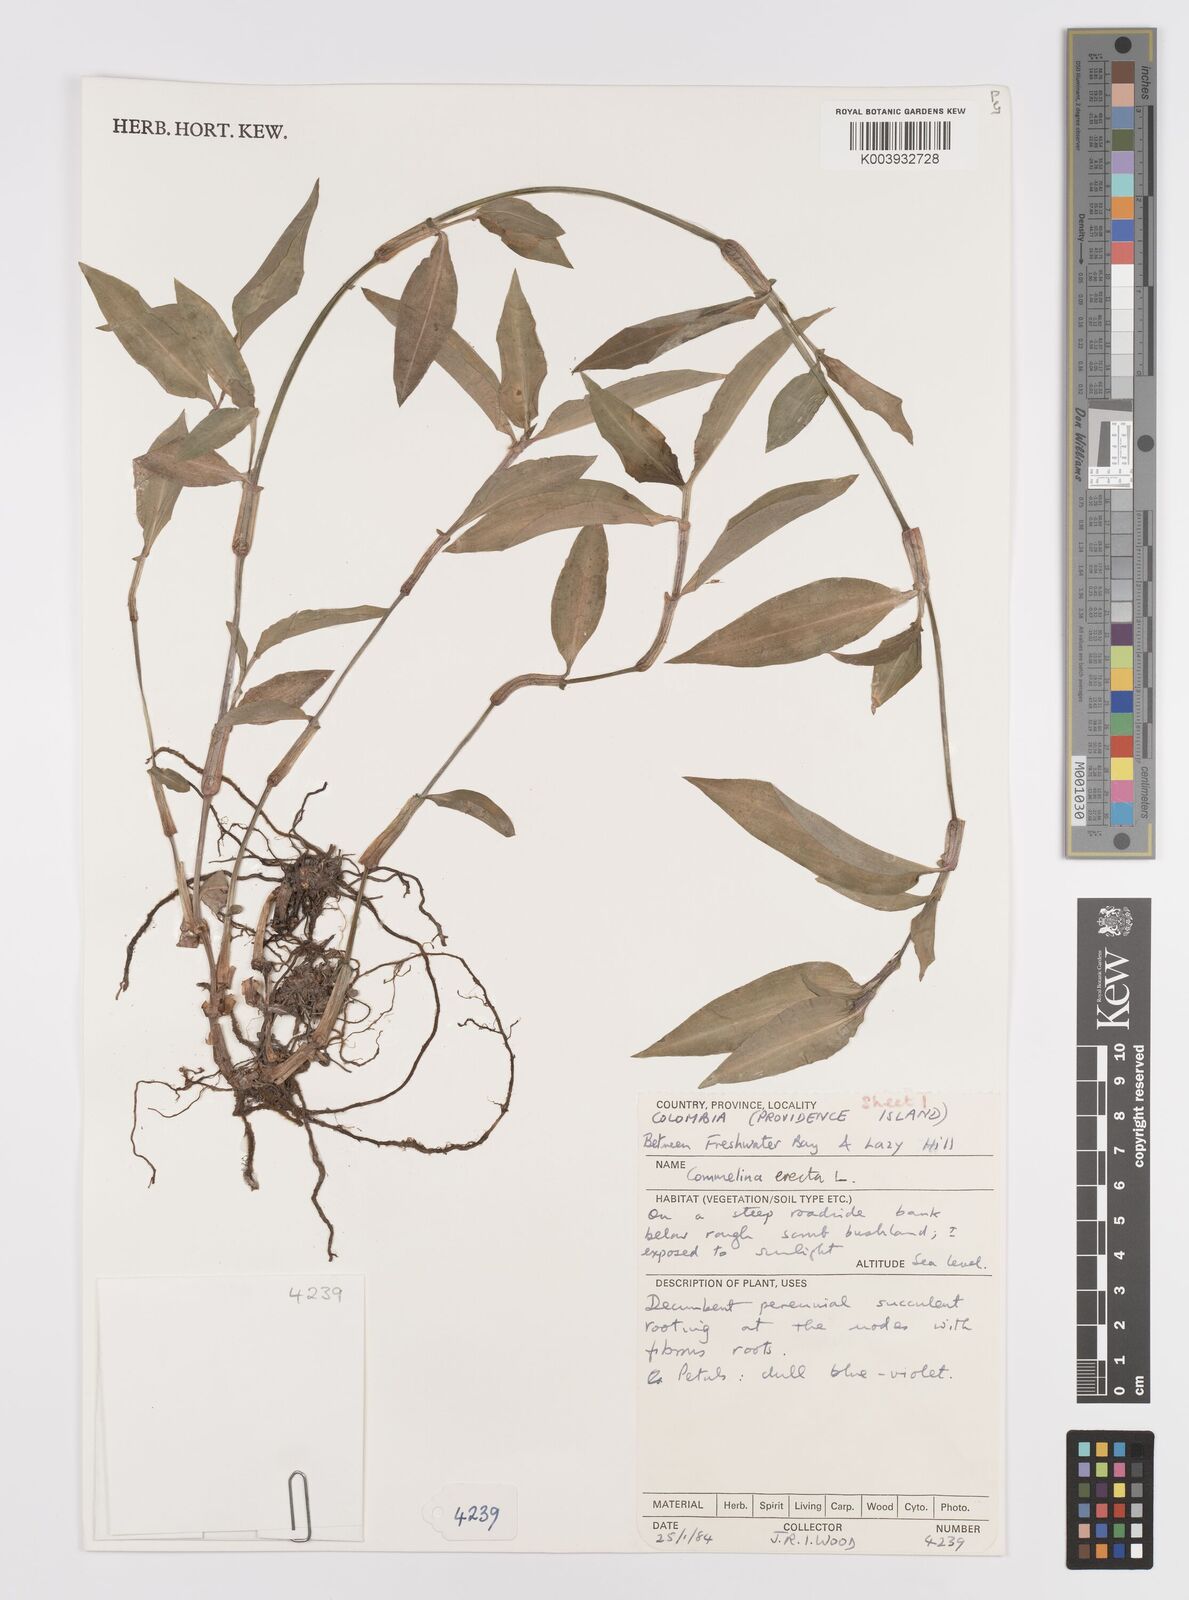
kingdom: Plantae
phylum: Tracheophyta
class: Liliopsida
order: Commelinales
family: Commelinaceae
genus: Commelina
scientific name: Commelina erecta
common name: Blousel blommetjie
